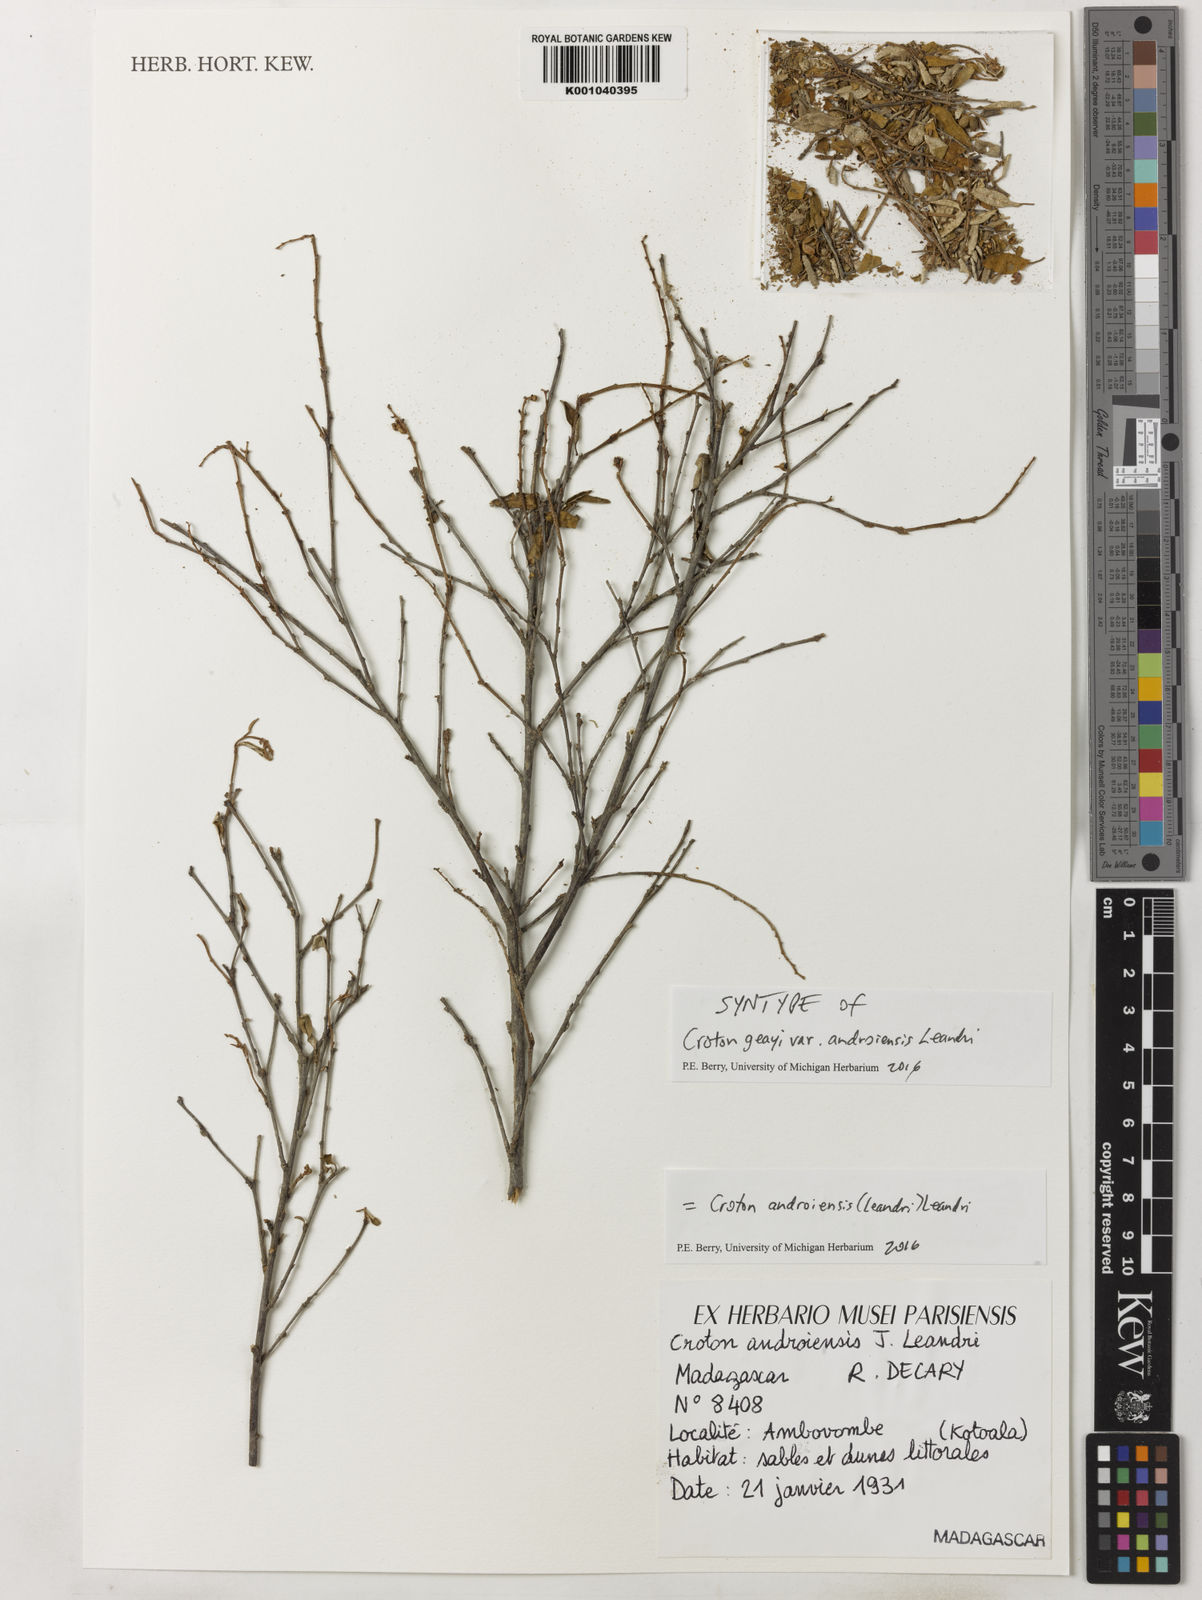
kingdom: Plantae
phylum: Tracheophyta
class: Magnoliopsida
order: Malpighiales
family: Euphorbiaceae
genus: Croton
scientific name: Croton androiensis
